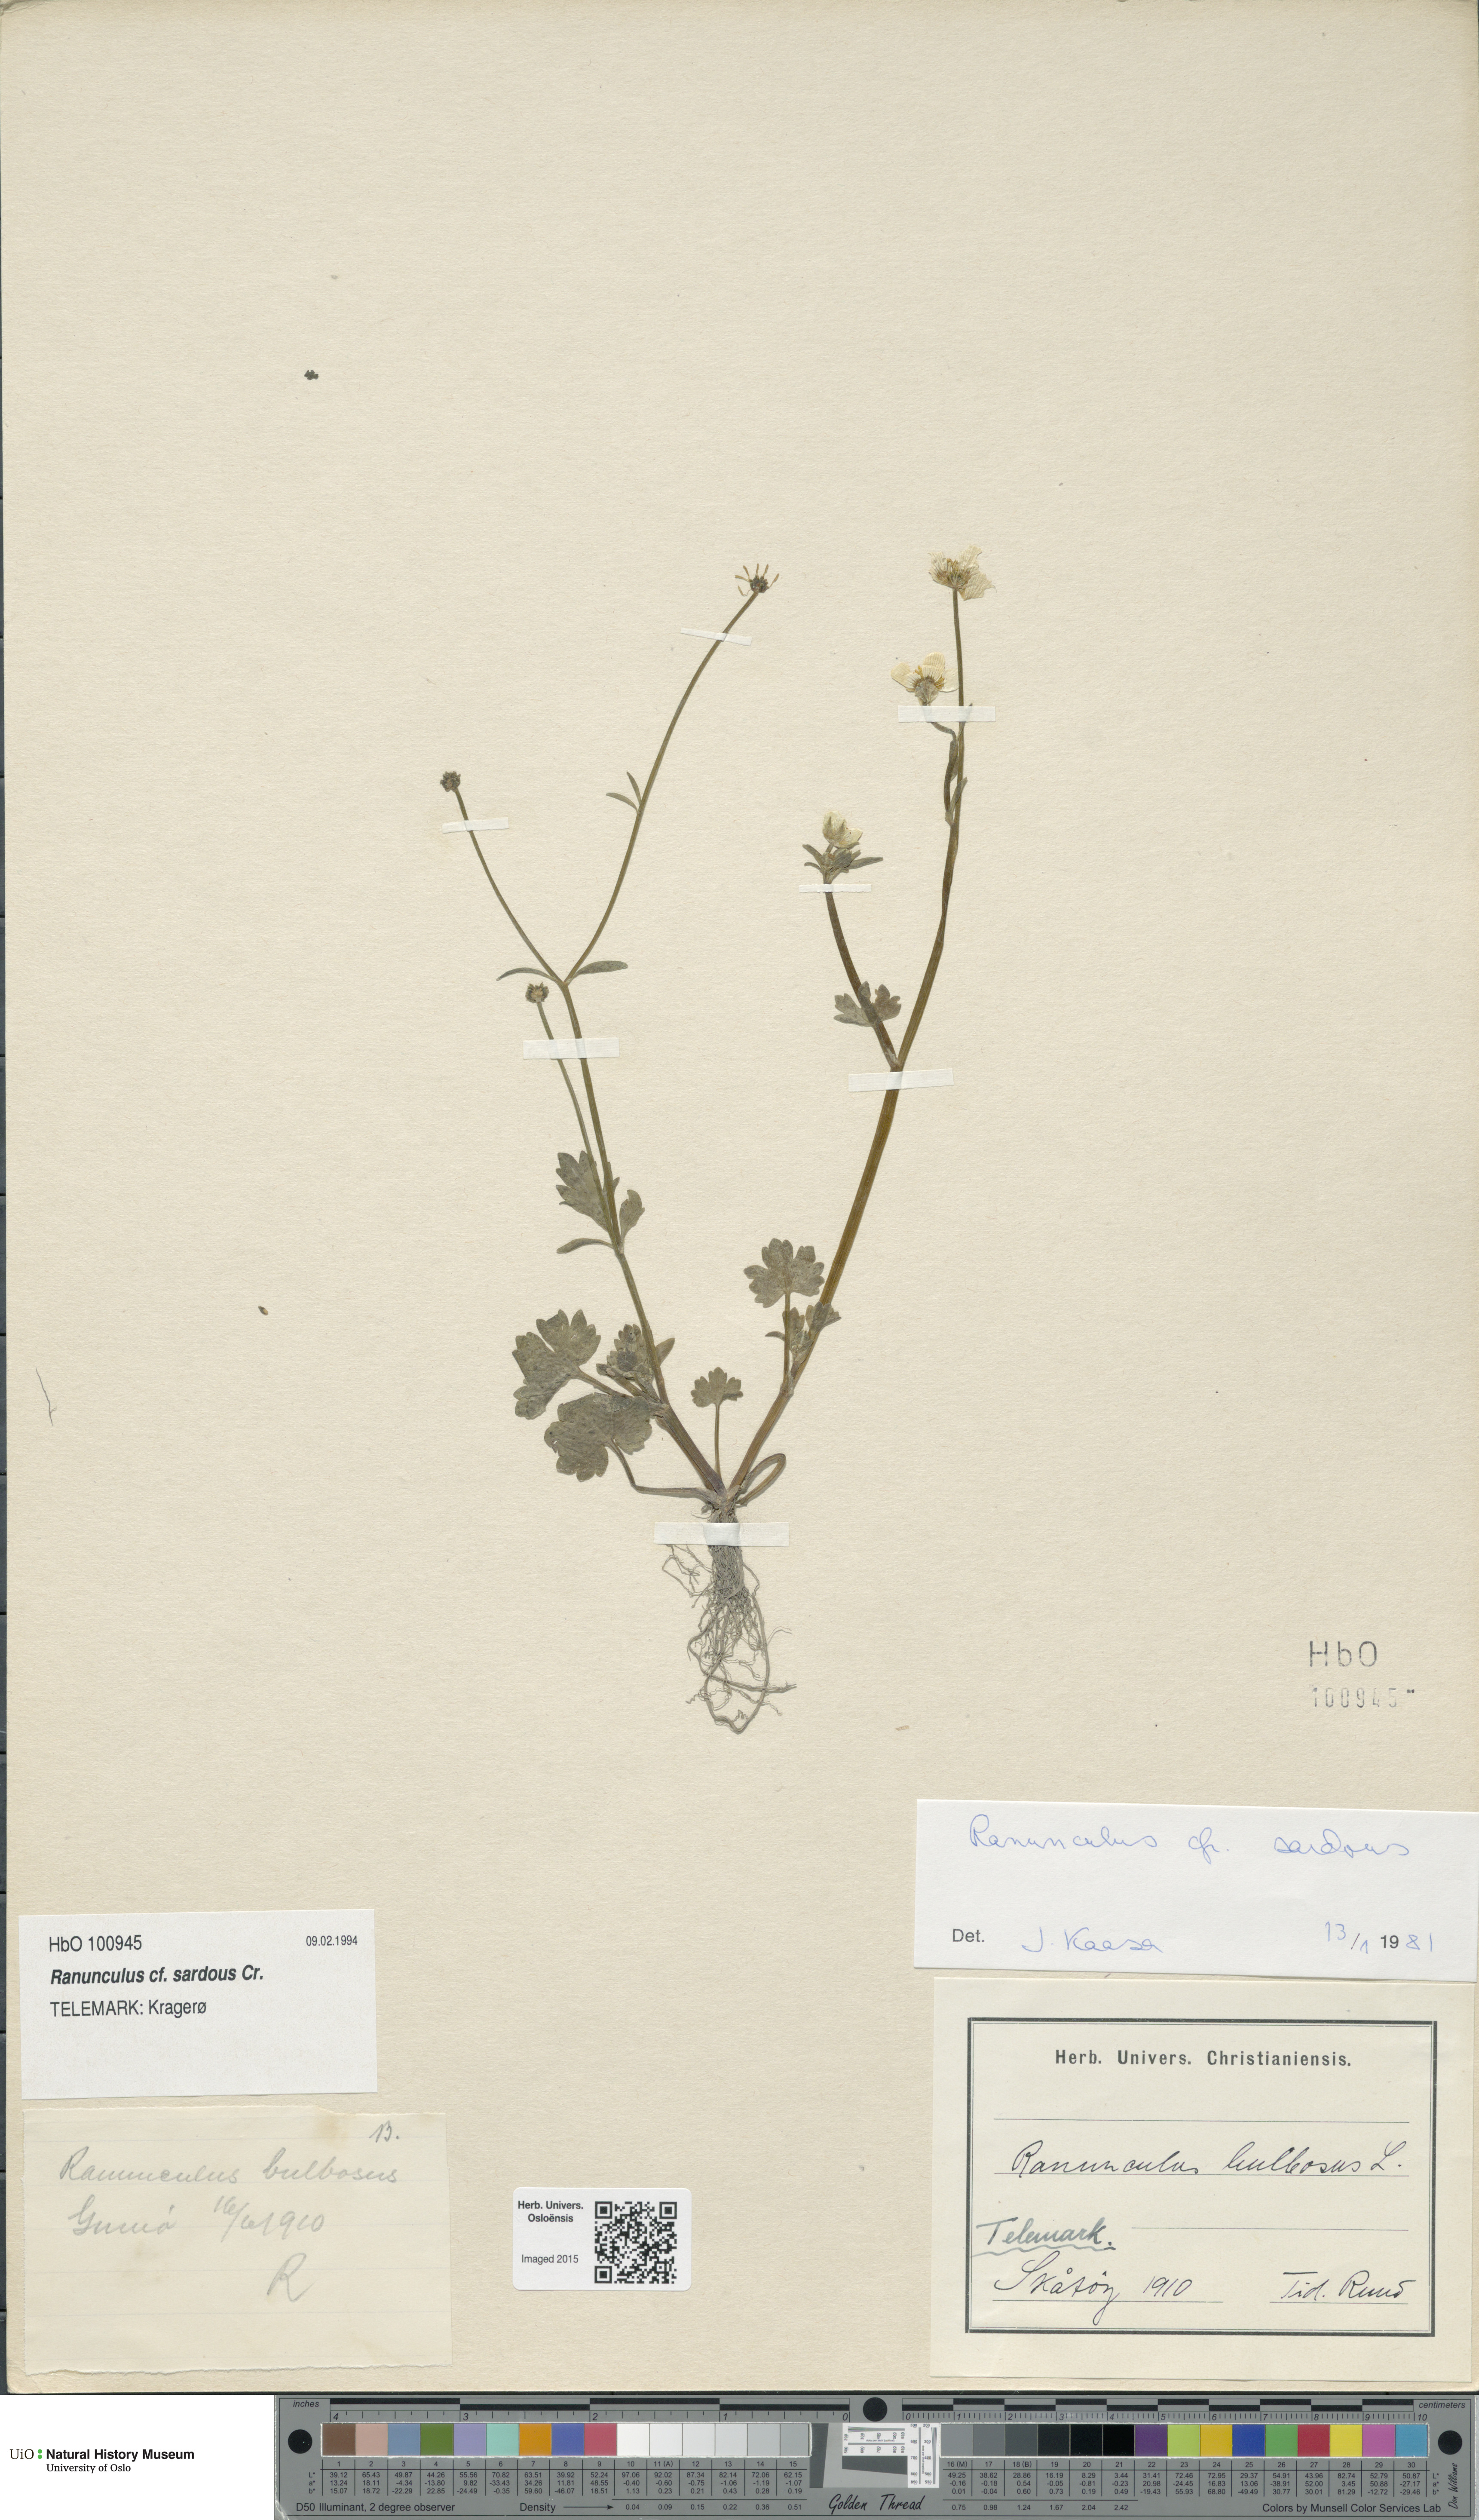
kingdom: Plantae
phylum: Tracheophyta
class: Magnoliopsida
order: Ranunculales
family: Ranunculaceae
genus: Ranunculus
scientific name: Ranunculus bulbosus
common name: Bulbous buttercup
